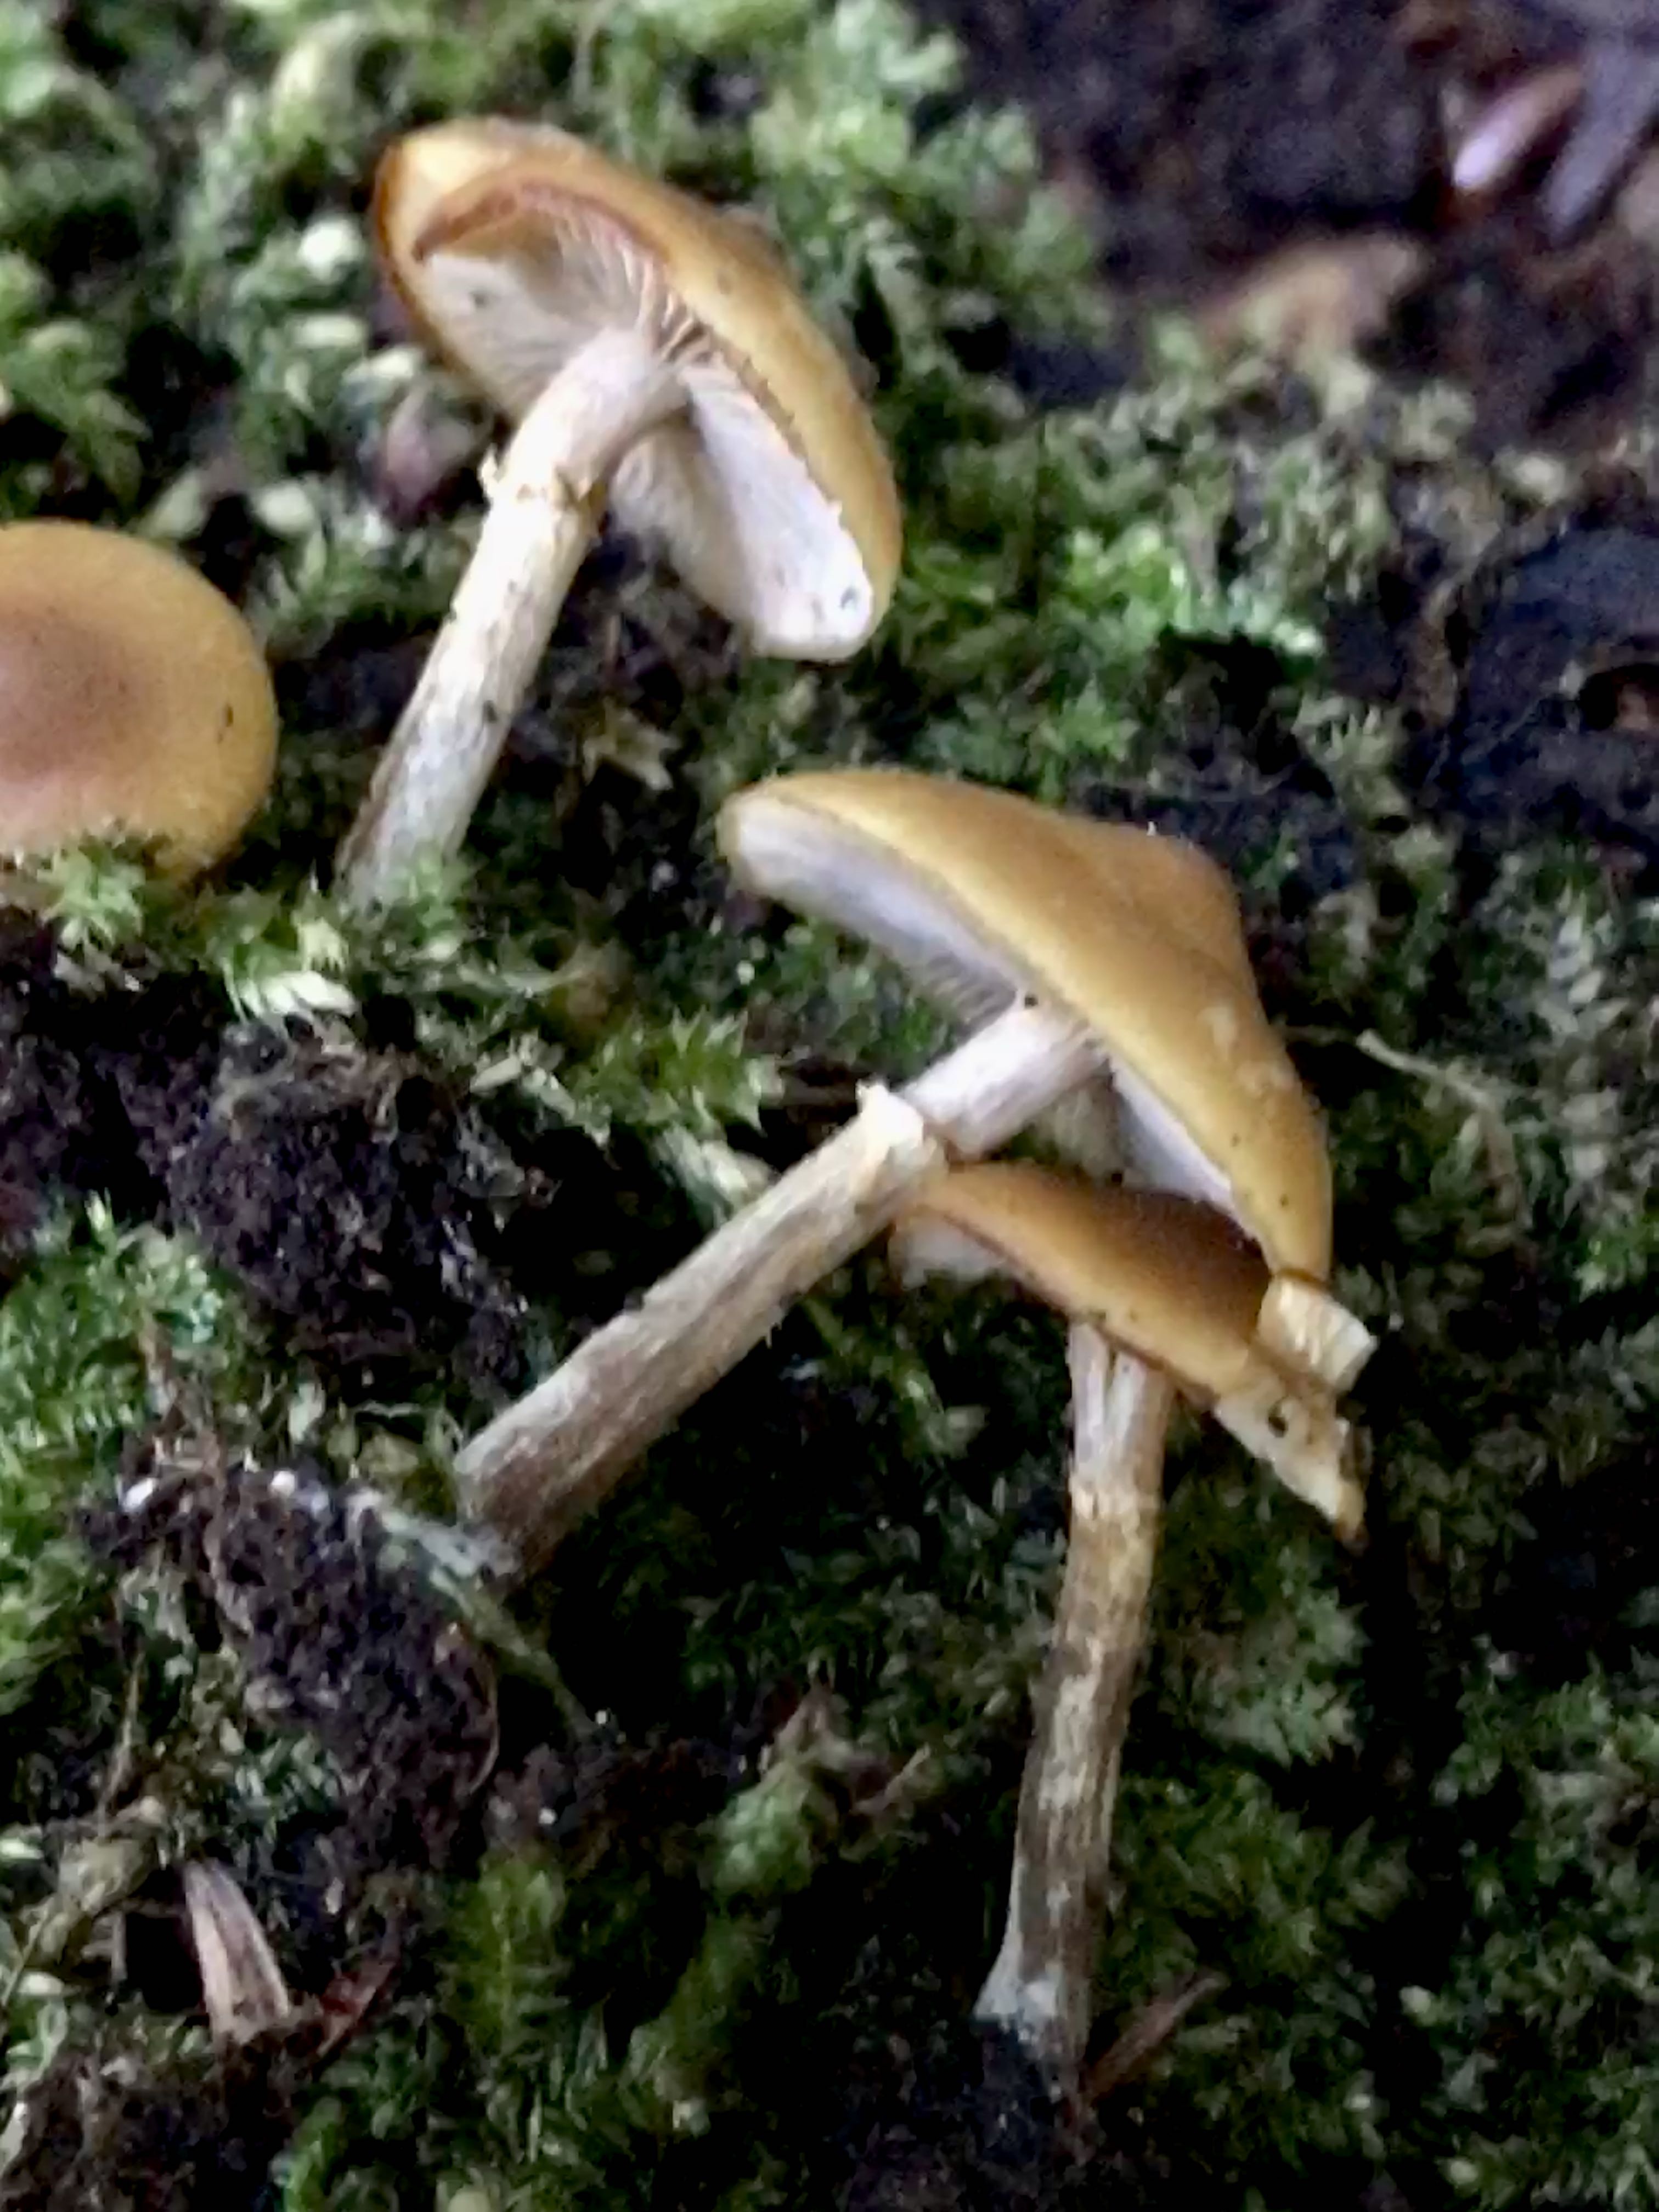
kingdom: Fungi
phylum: Basidiomycota
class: Agaricomycetes
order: Agaricales
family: Hymenogastraceae
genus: Galerina
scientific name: Galerina marginata
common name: randbæltet hjelmhat
